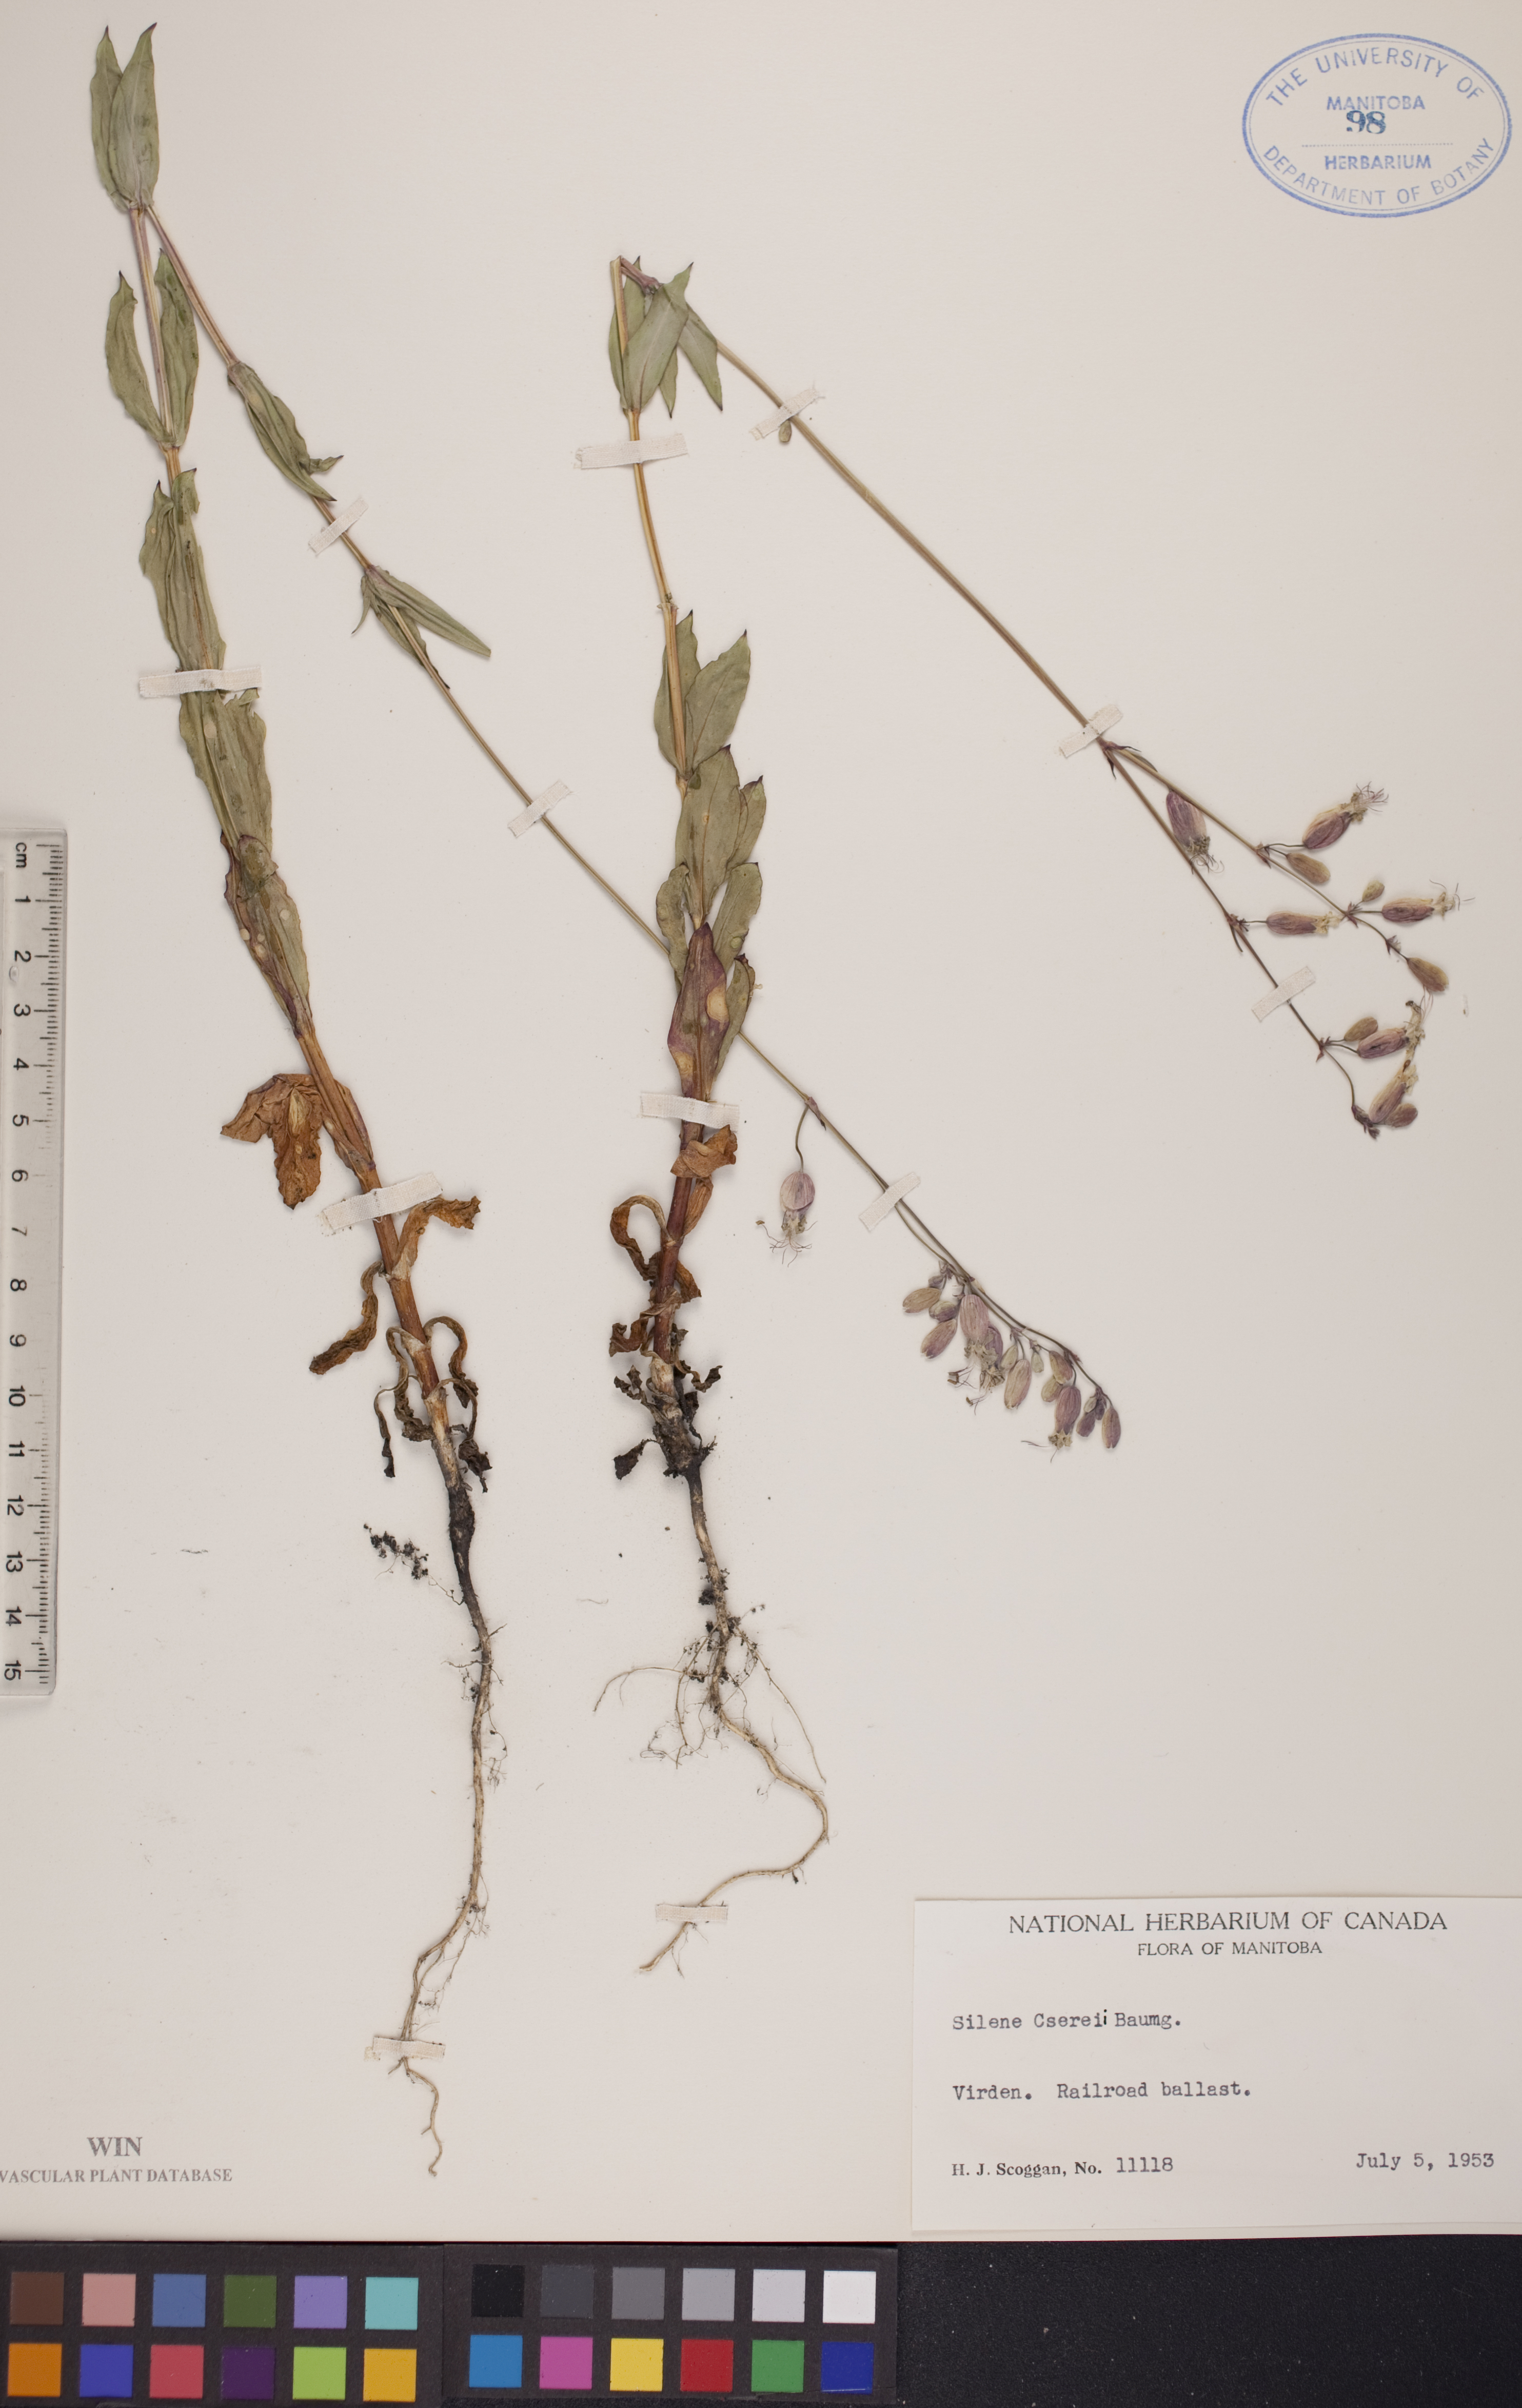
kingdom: Plantae
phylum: Tracheophyta
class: Magnoliopsida
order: Caryophyllales
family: Caryophyllaceae
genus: Silene
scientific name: Silene csereii
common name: Balkan catchfly
